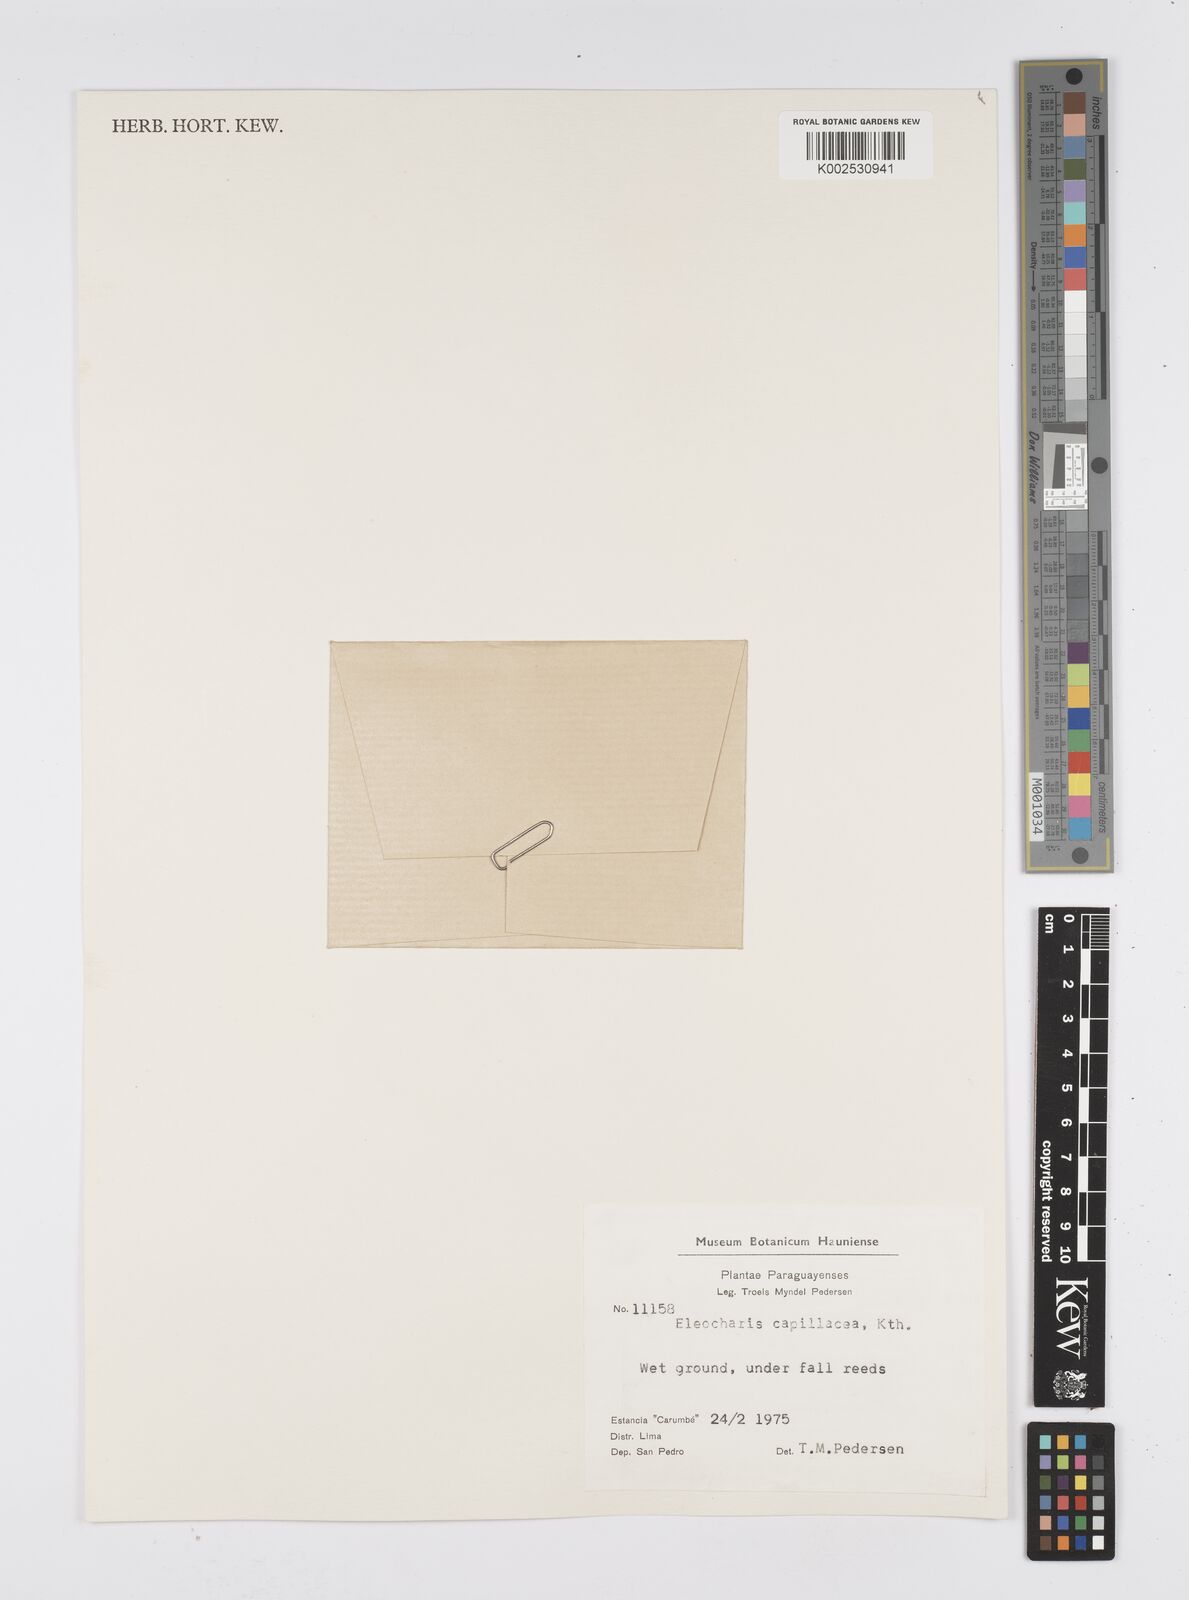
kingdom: Plantae
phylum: Tracheophyta
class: Liliopsida
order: Poales
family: Cyperaceae
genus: Eleocharis
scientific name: Eleocharis capillacea
